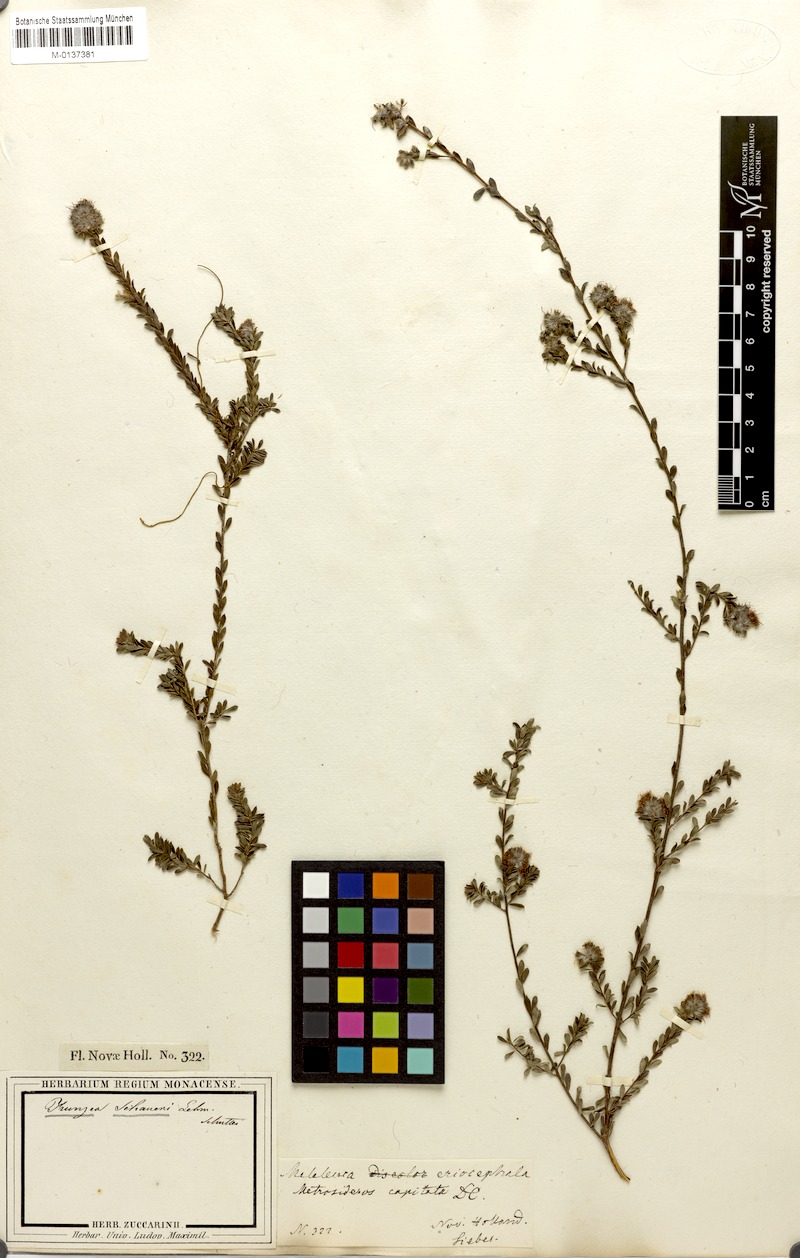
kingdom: Plantae
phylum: Tracheophyta
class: Magnoliopsida
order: Myrtales
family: Myrtaceae
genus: Kunzea
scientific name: Kunzea capitata
